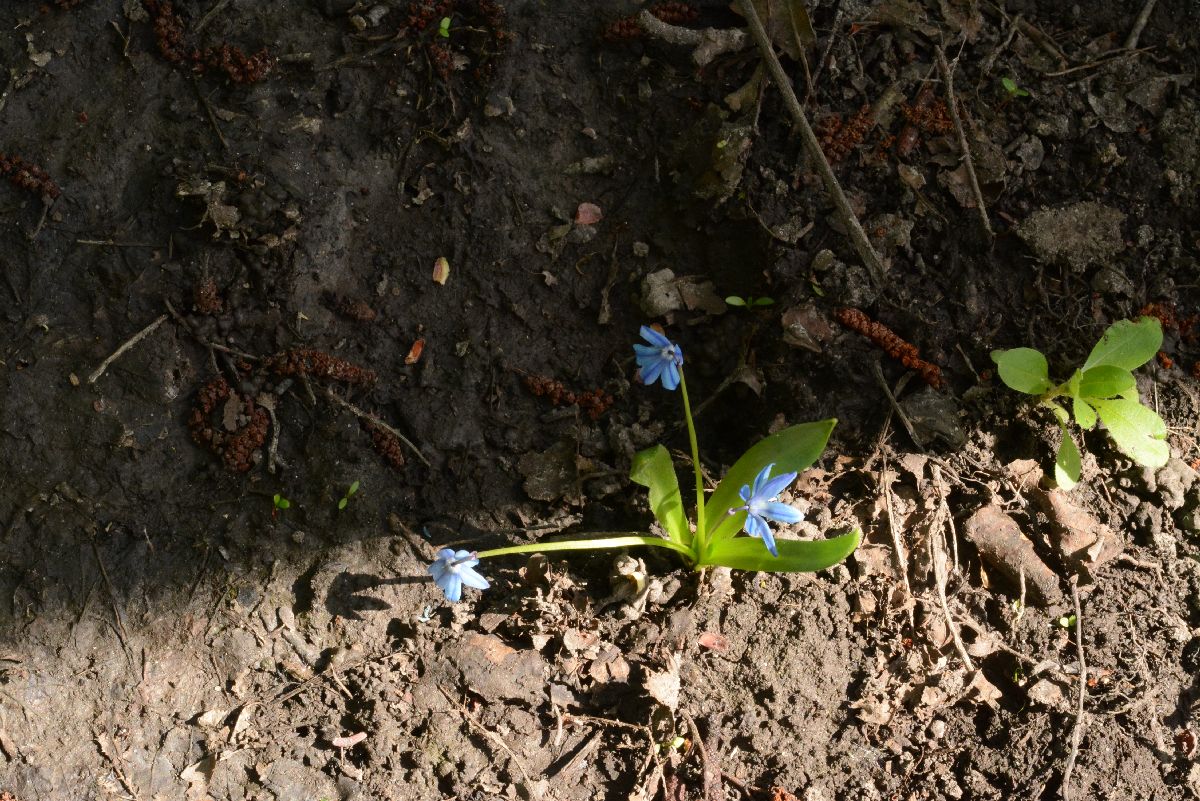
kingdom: Plantae
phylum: Tracheophyta
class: Liliopsida
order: Asparagales
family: Asparagaceae
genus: Scilla
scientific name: Scilla siberica
